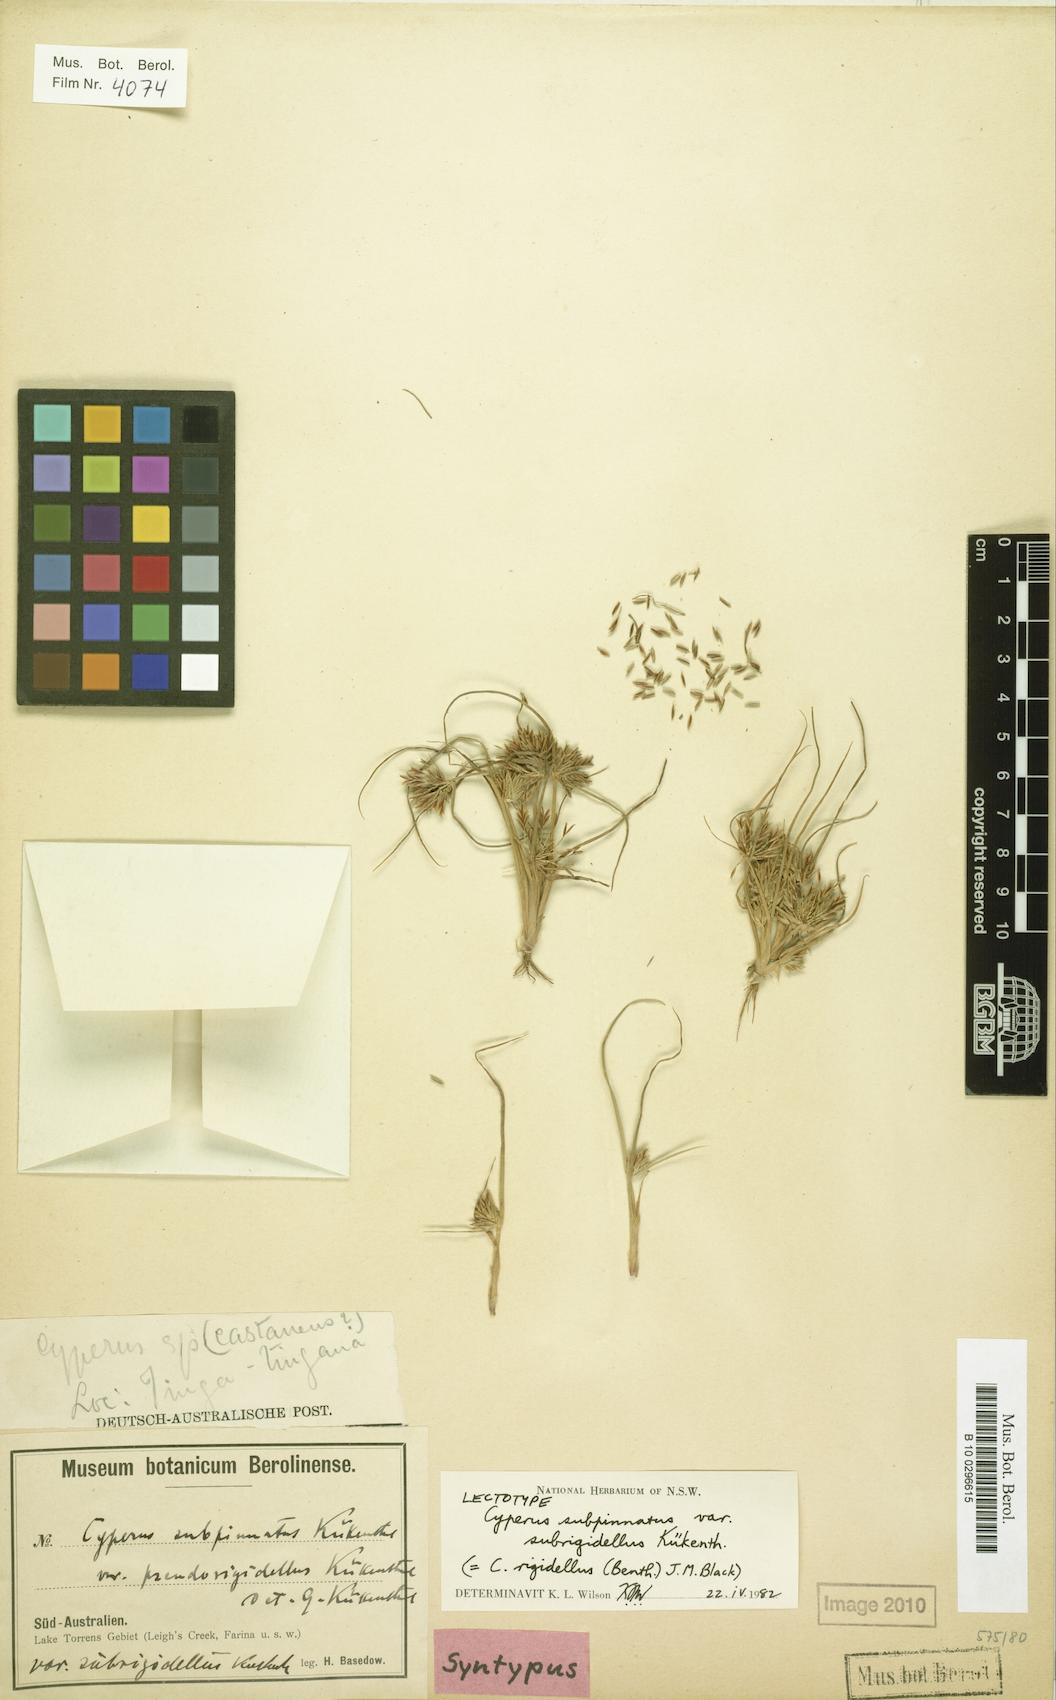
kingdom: Plantae
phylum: Tracheophyta
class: Liliopsida
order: Poales
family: Cyperaceae
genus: Cyperus
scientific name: Cyperus rigidellus
